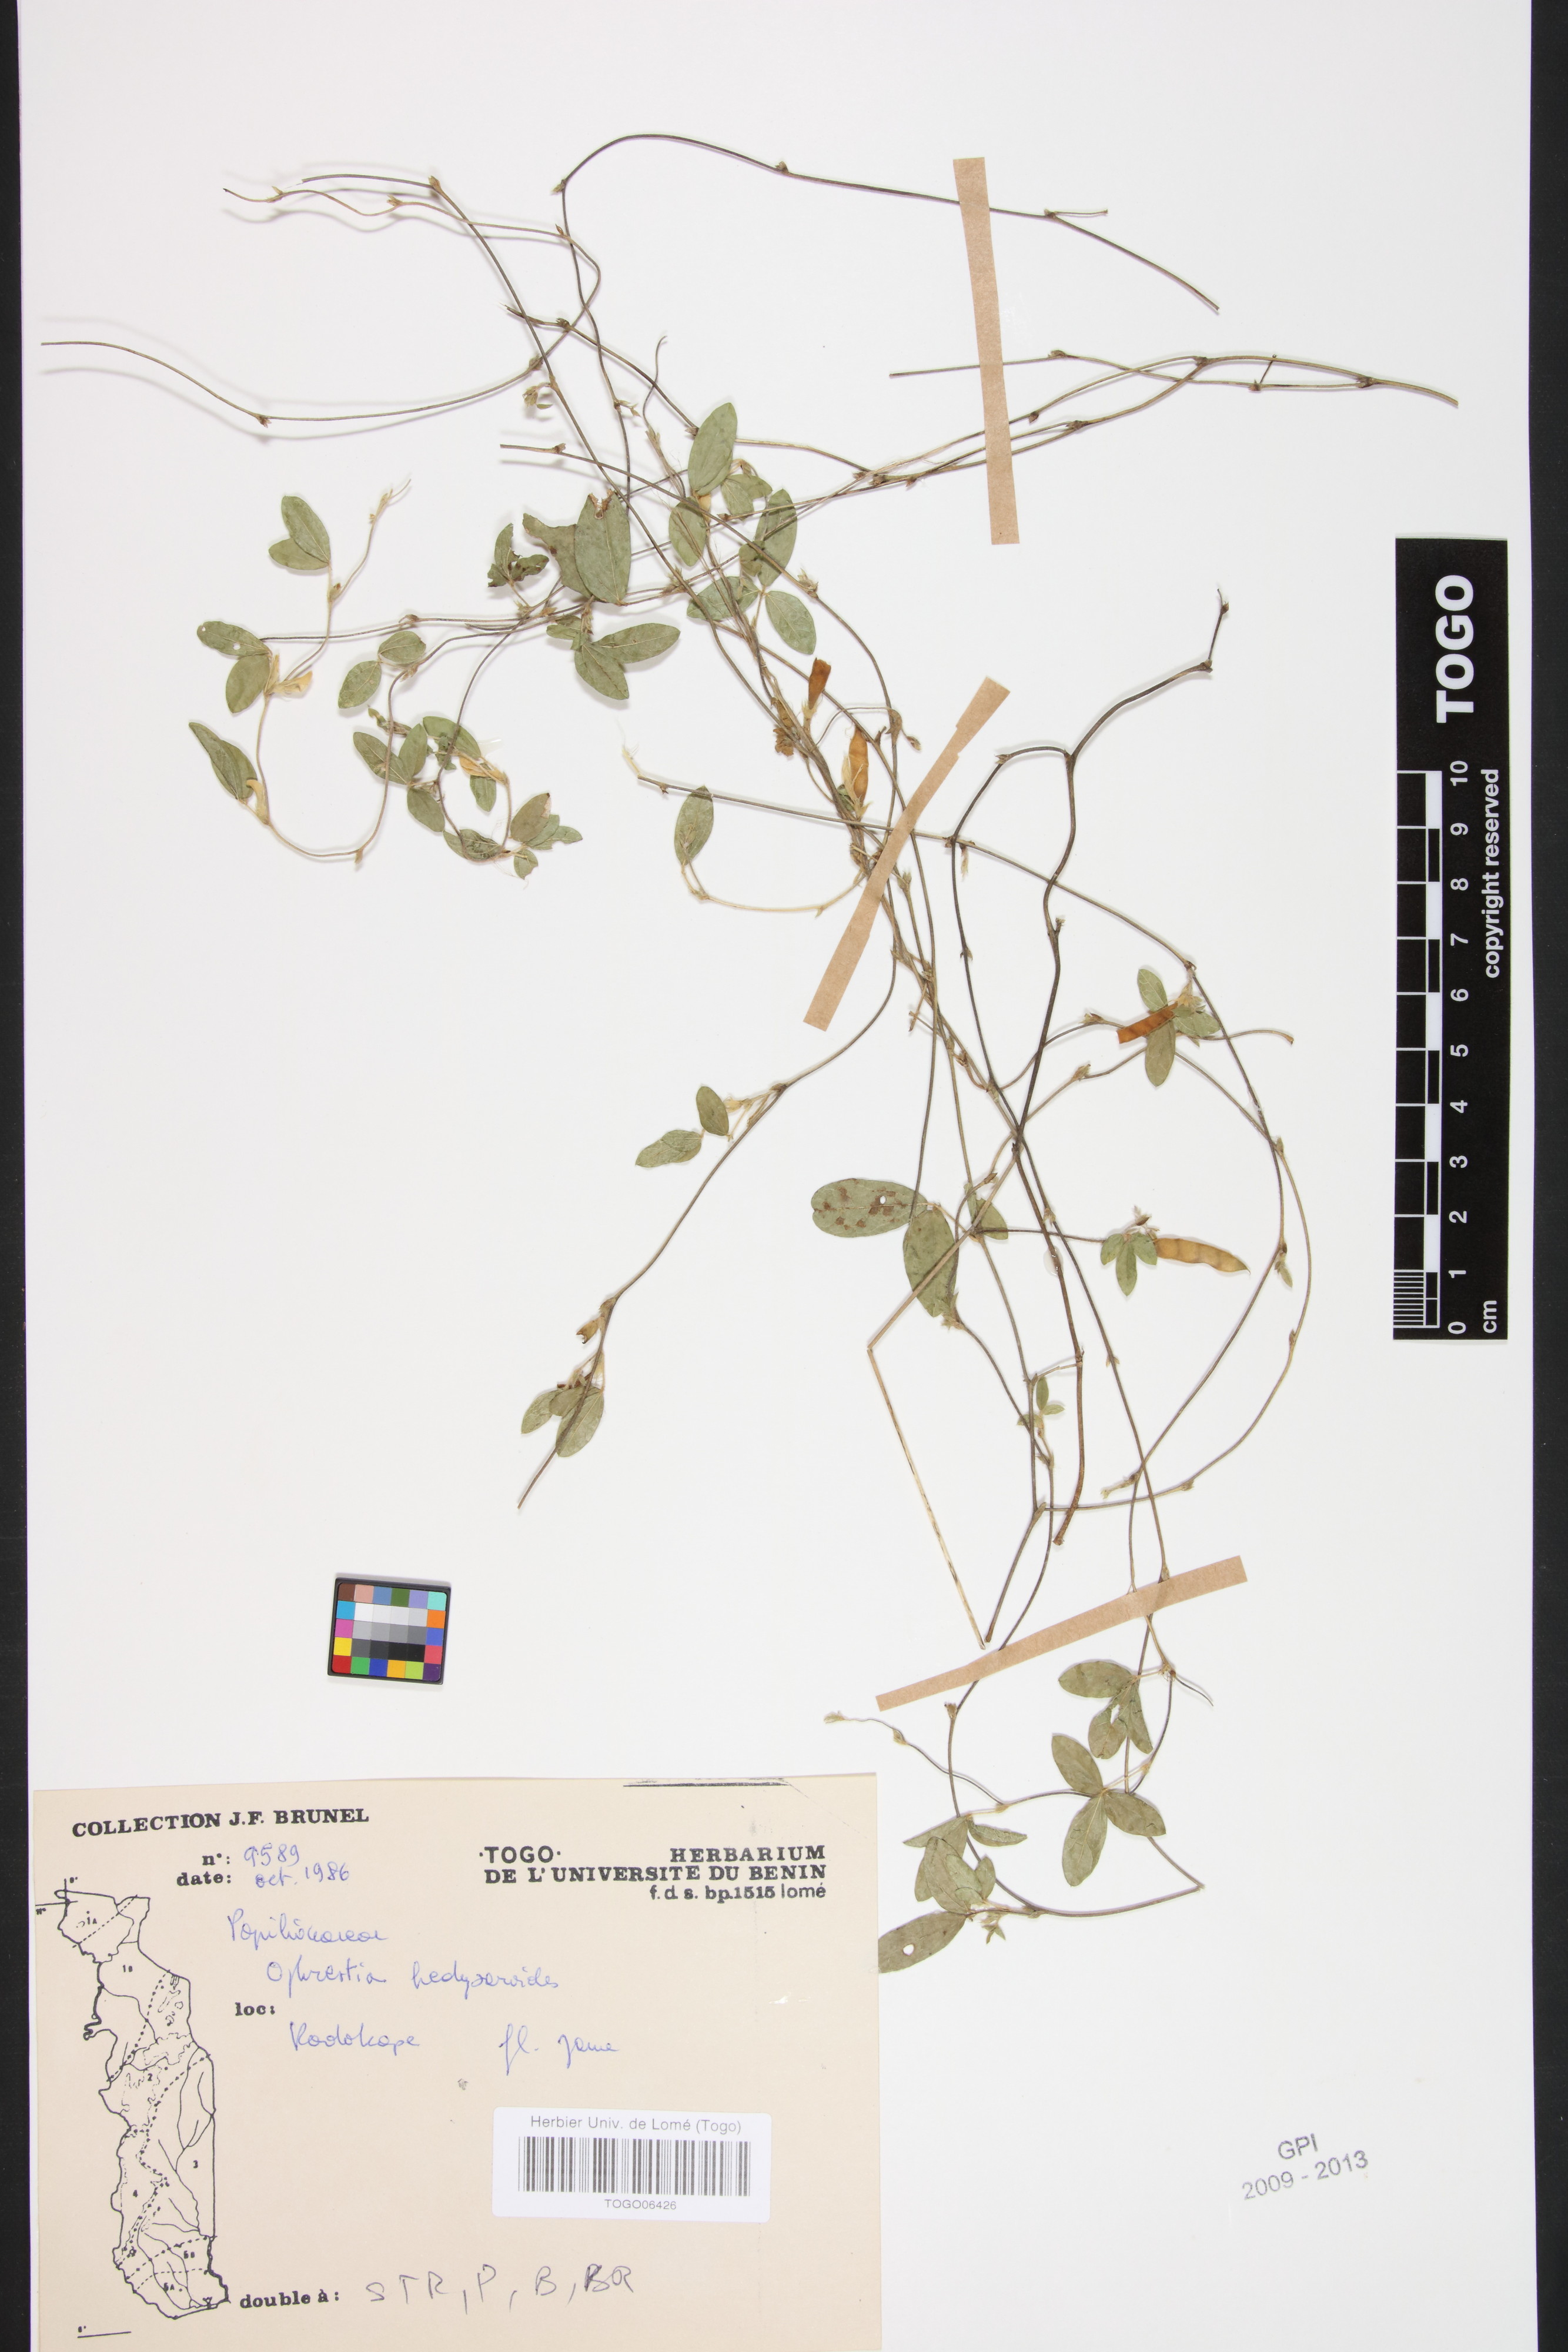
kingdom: Plantae
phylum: Tracheophyta
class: Magnoliopsida
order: Fabales
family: Fabaceae
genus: Ophrestia
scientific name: Ophrestia hedysaroides
